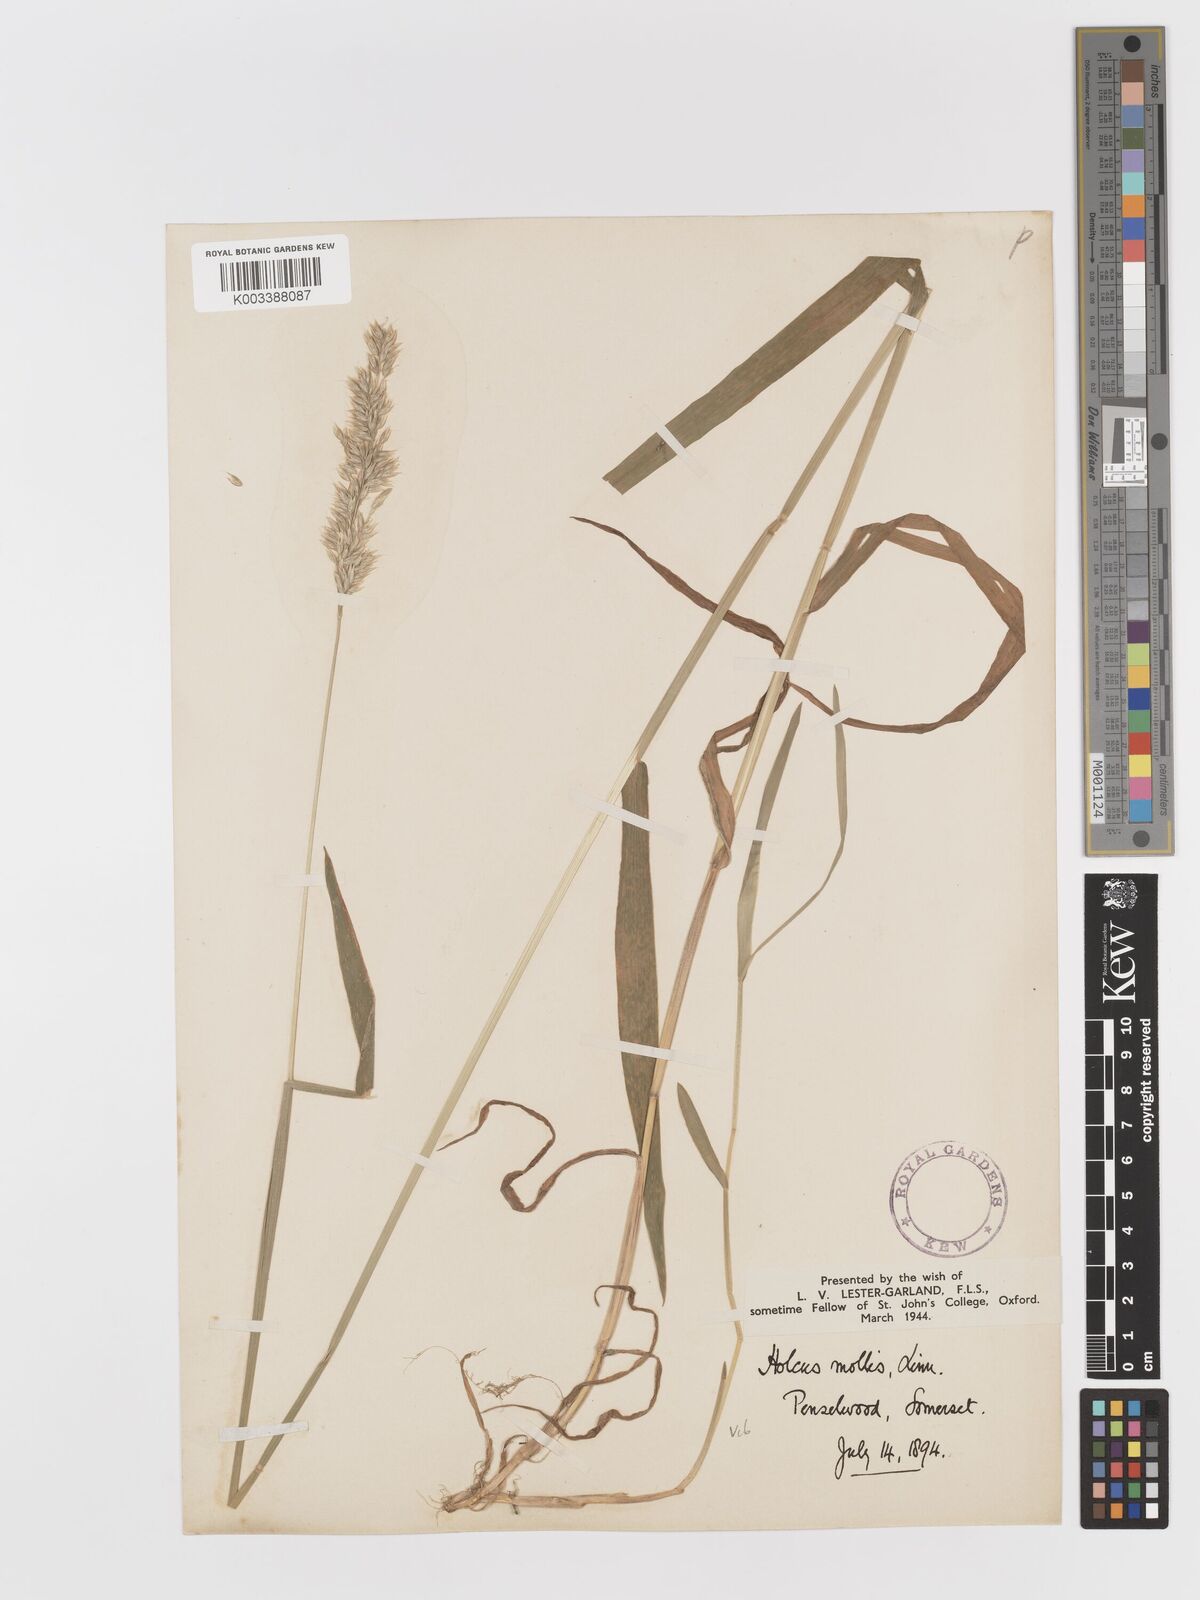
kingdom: Plantae
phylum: Tracheophyta
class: Liliopsida
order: Poales
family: Poaceae
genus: Holcus
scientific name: Holcus mollis
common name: Creeping velvetgrass
